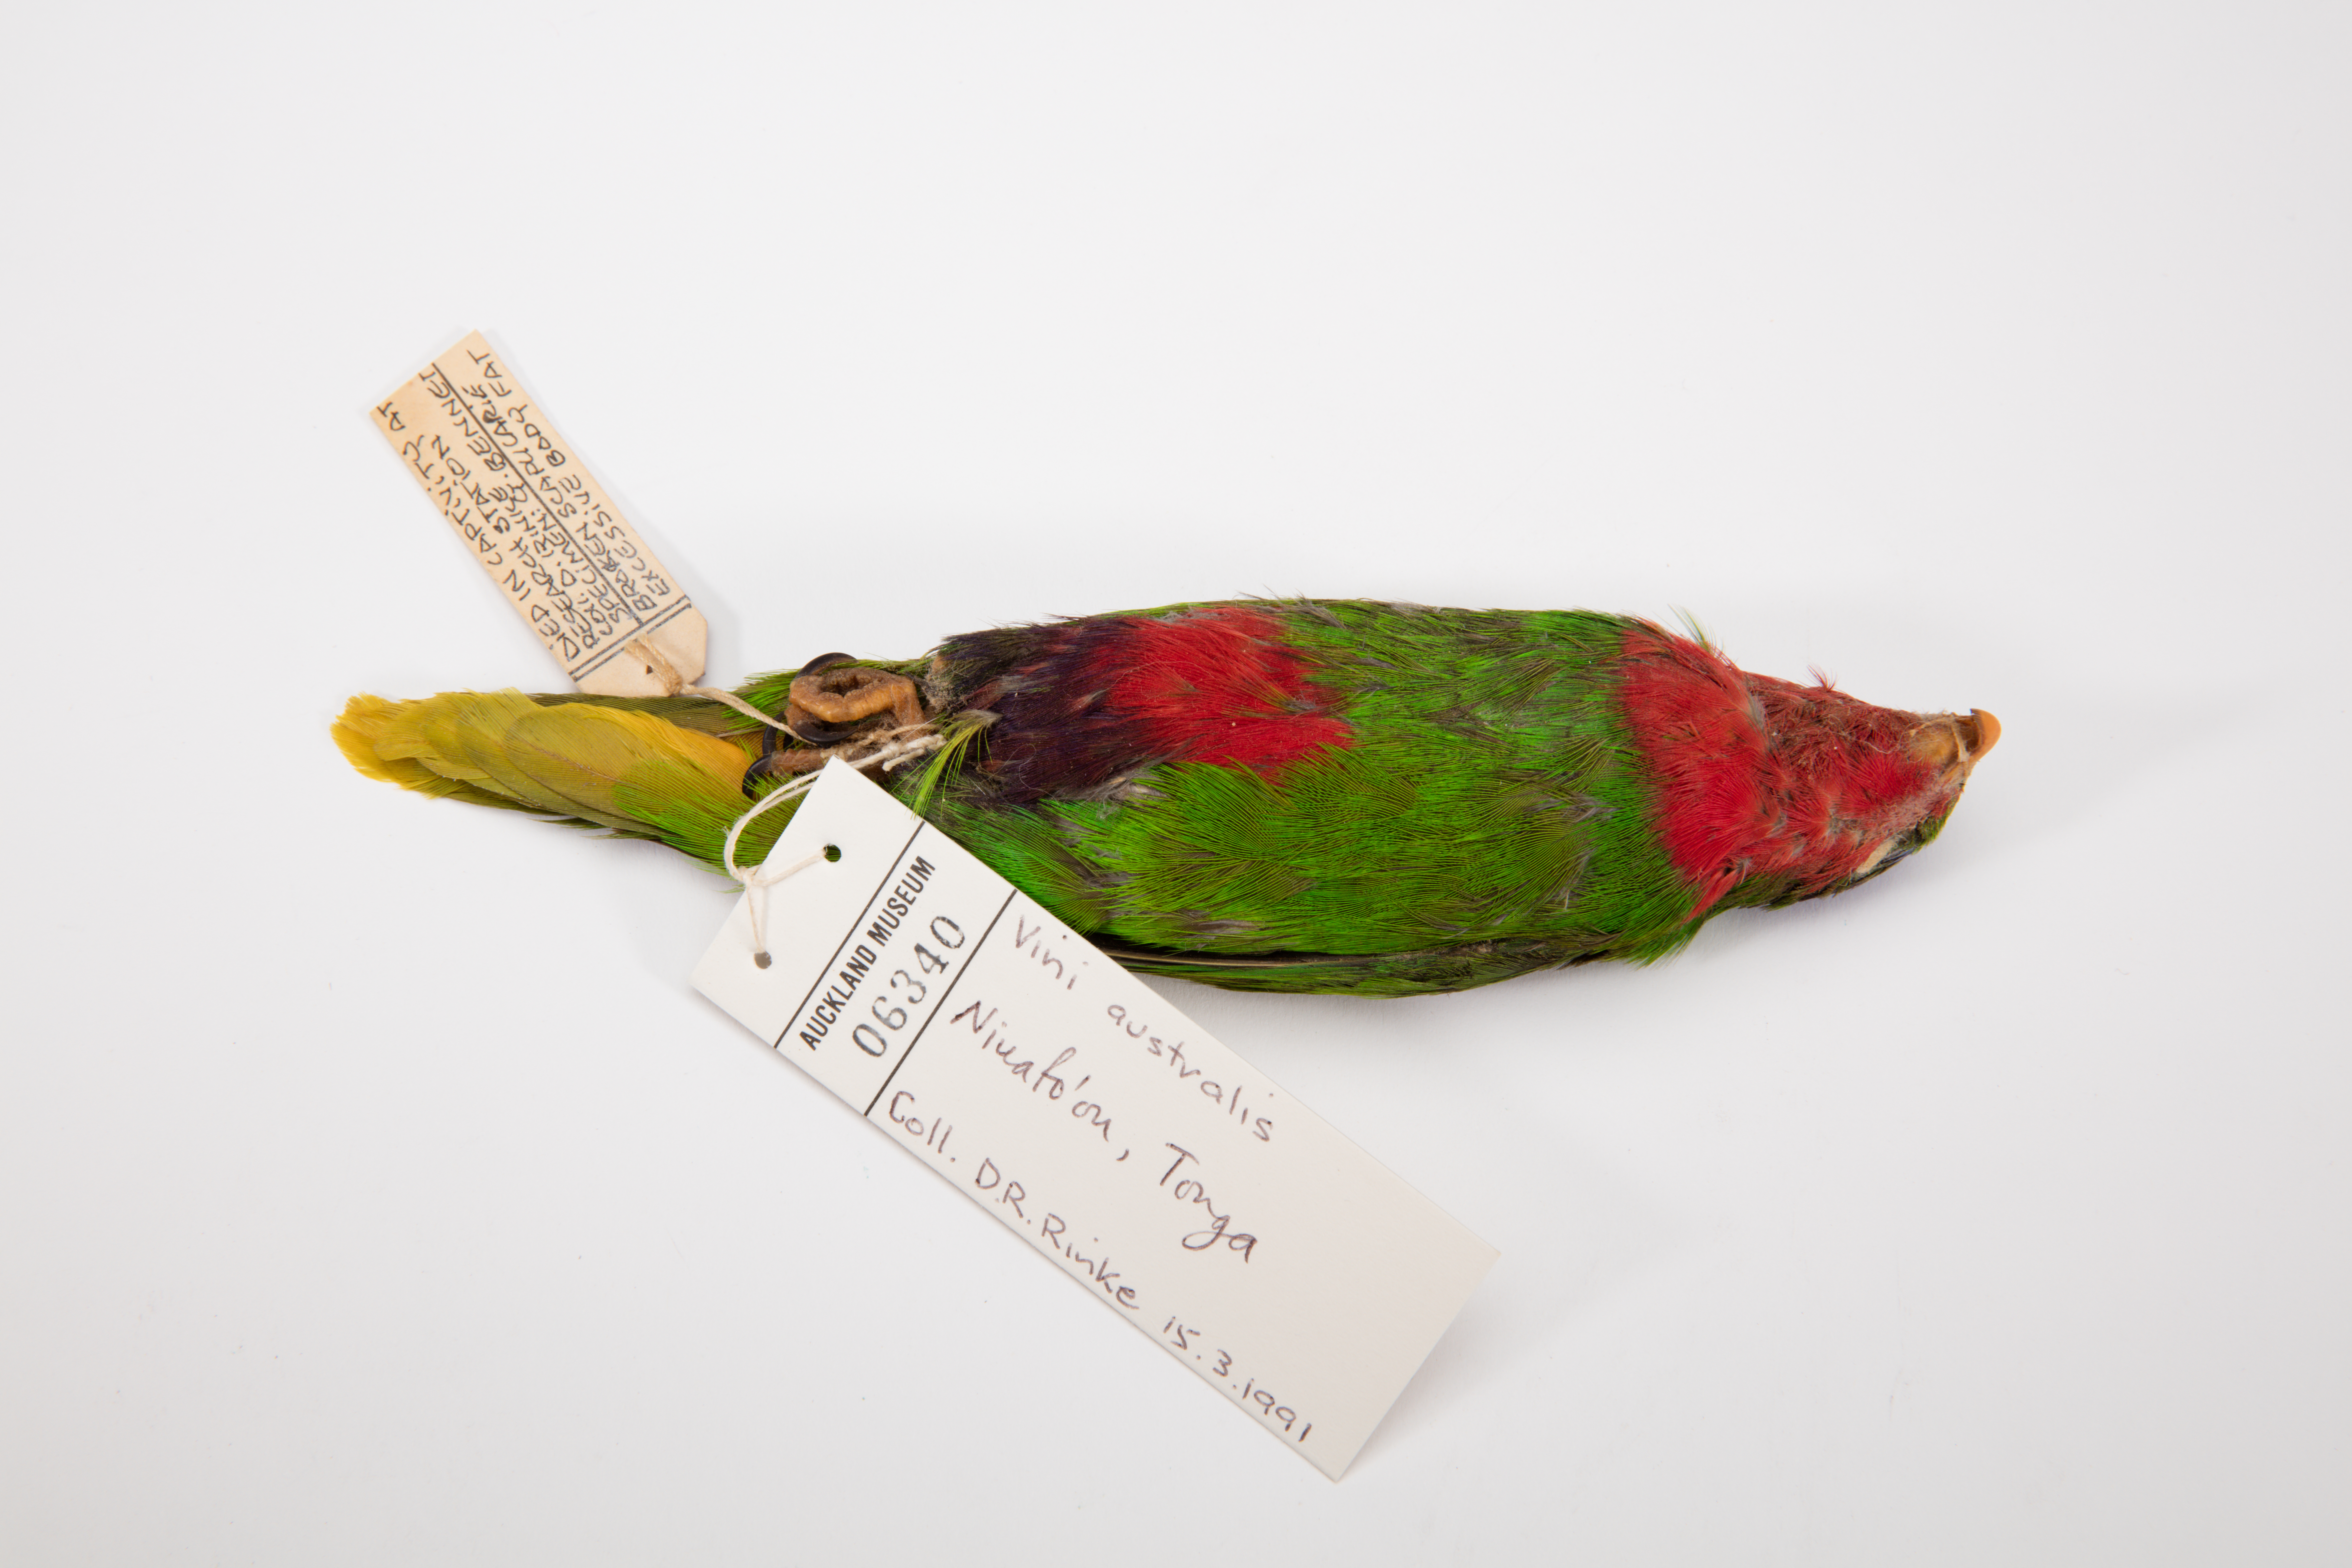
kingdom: Animalia
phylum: Chordata
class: Aves
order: Psittaciformes
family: Psittacidae
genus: Vini
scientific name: Vini australis
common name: Blue-crowned lorikeet
